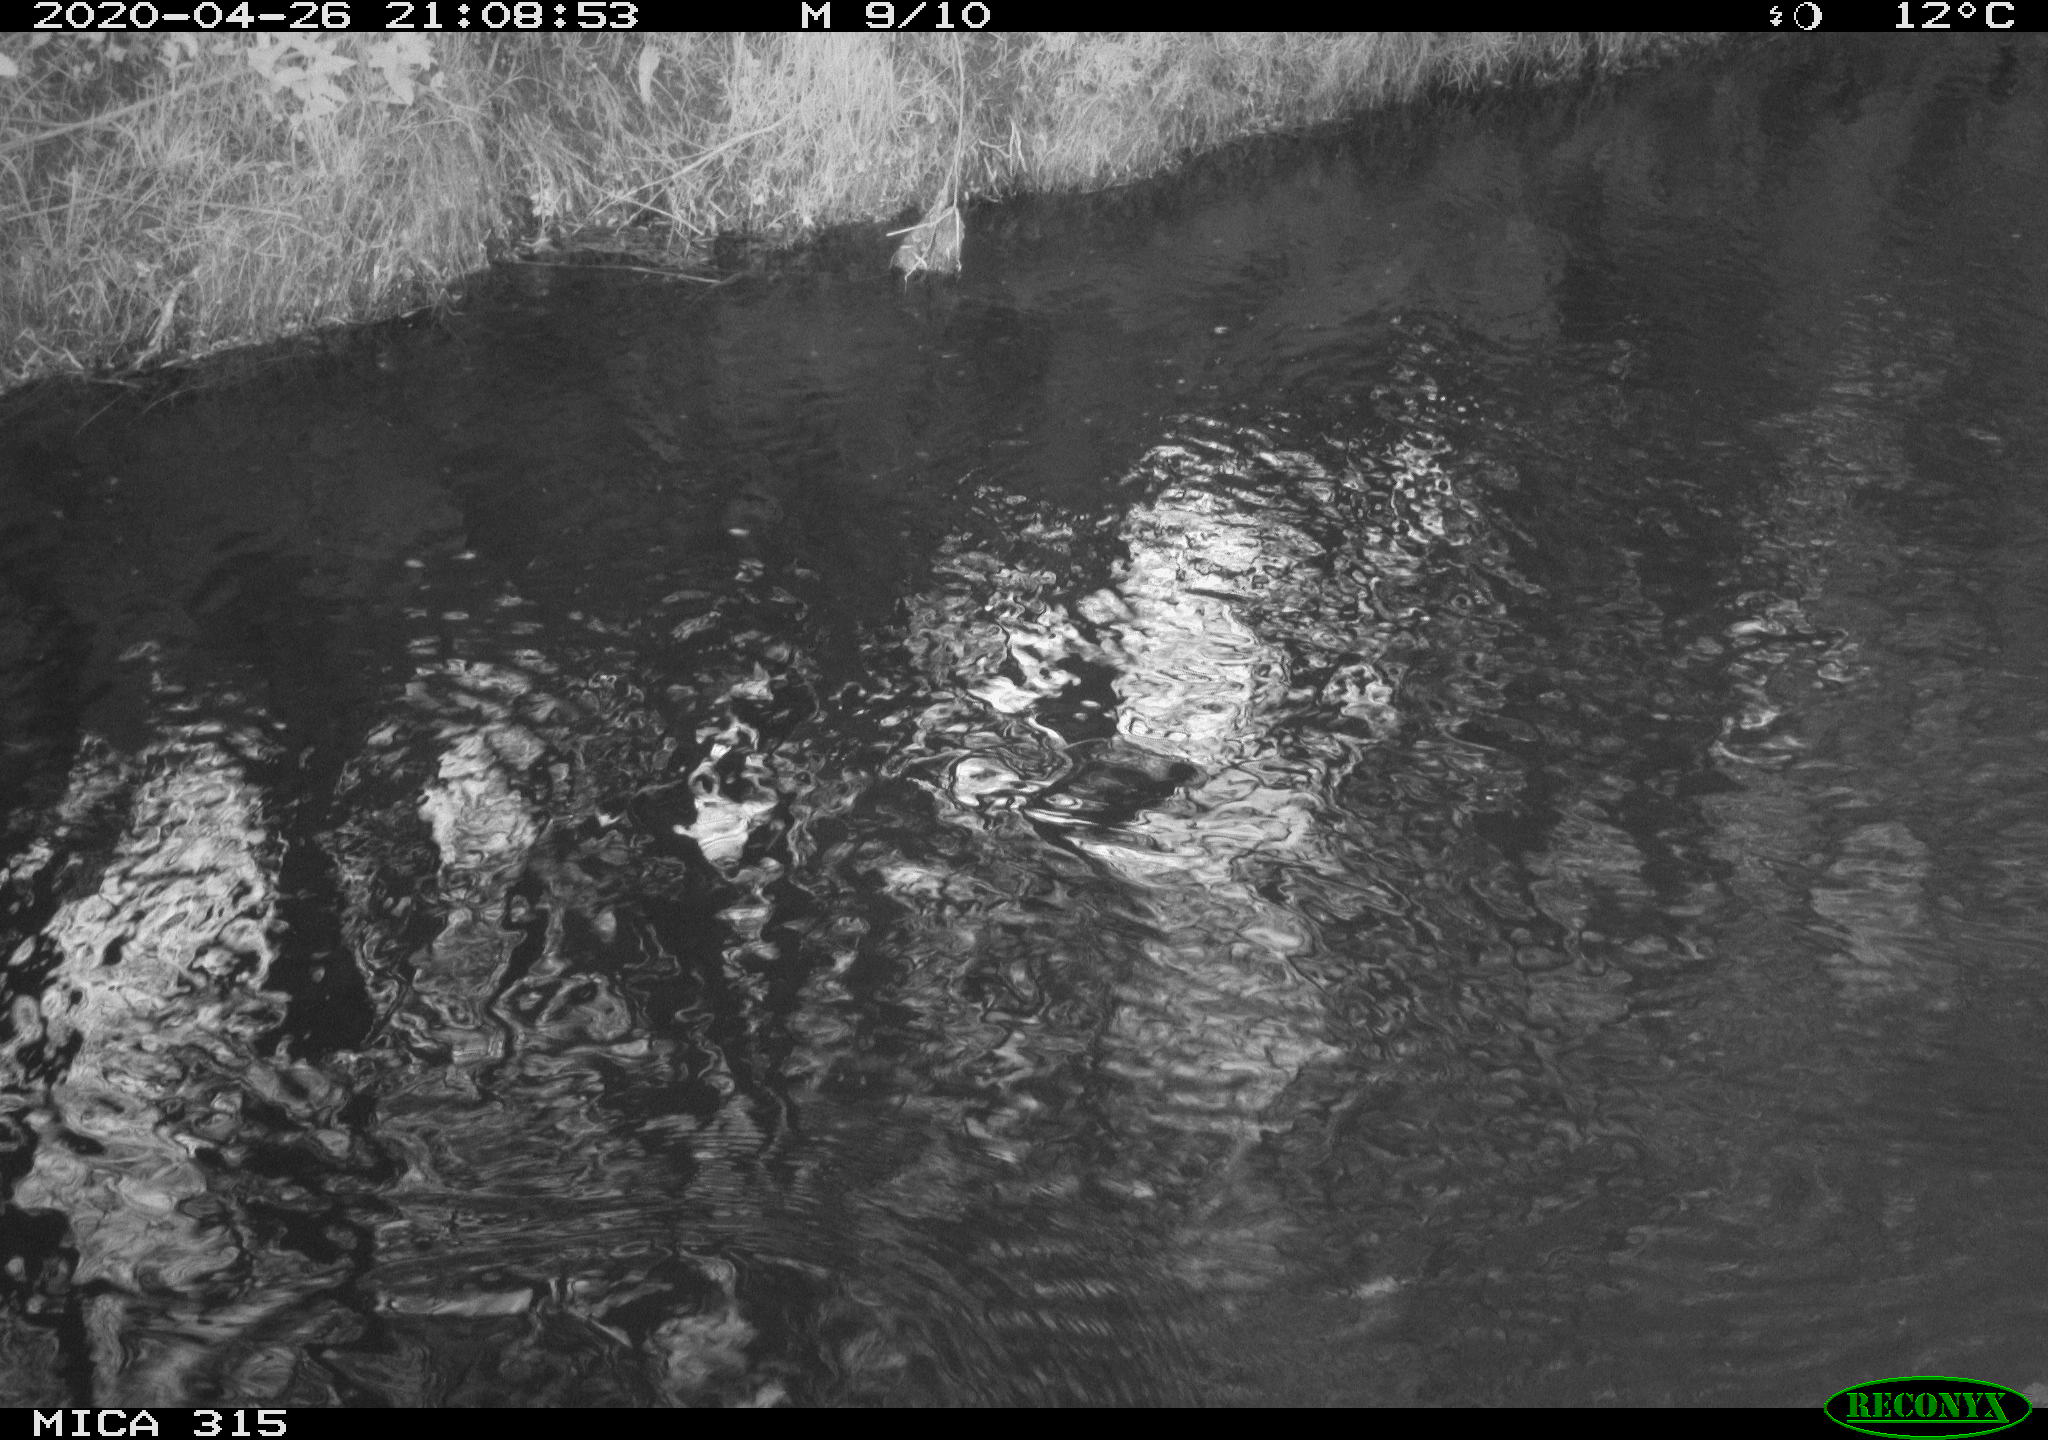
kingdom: Animalia
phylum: Chordata
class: Aves
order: Anseriformes
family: Anatidae
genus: Anas
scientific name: Anas platyrhynchos
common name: Mallard
